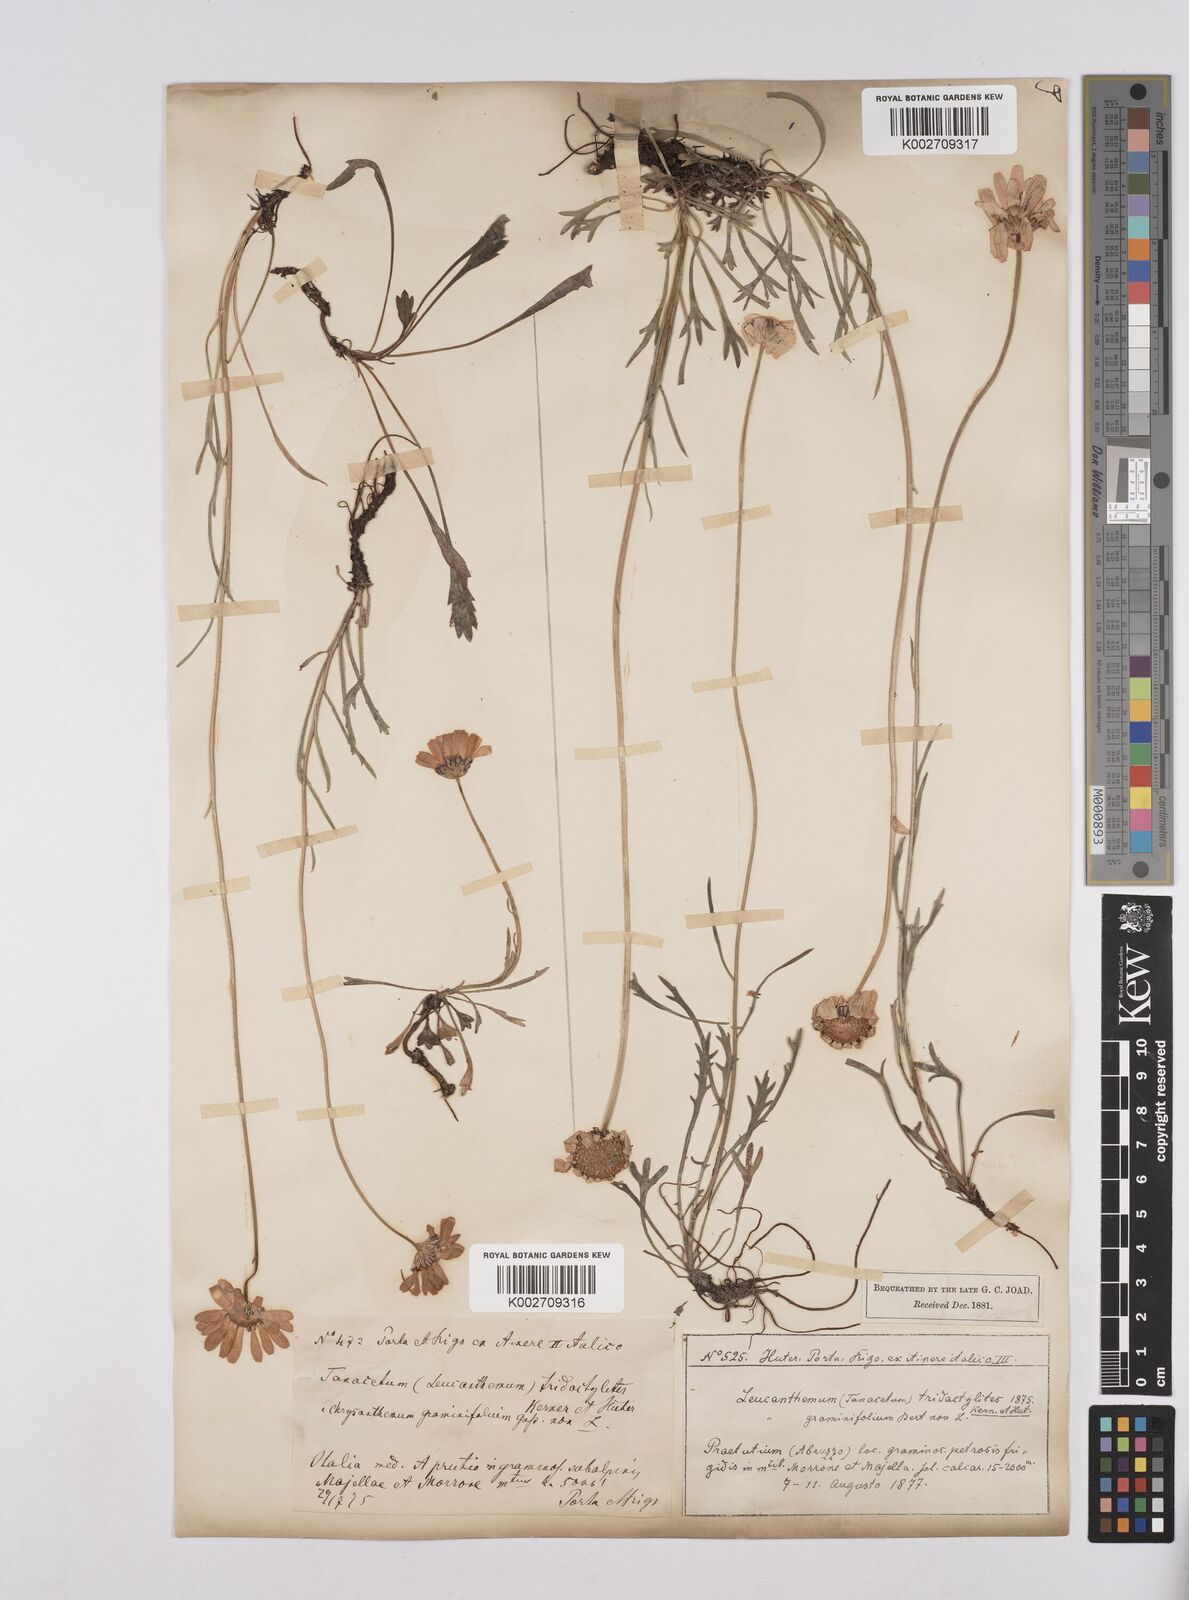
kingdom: Plantae
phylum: Tracheophyta
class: Magnoliopsida
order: Asterales
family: Asteraceae
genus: Leucanthemum
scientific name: Leucanthemum chloroticum
